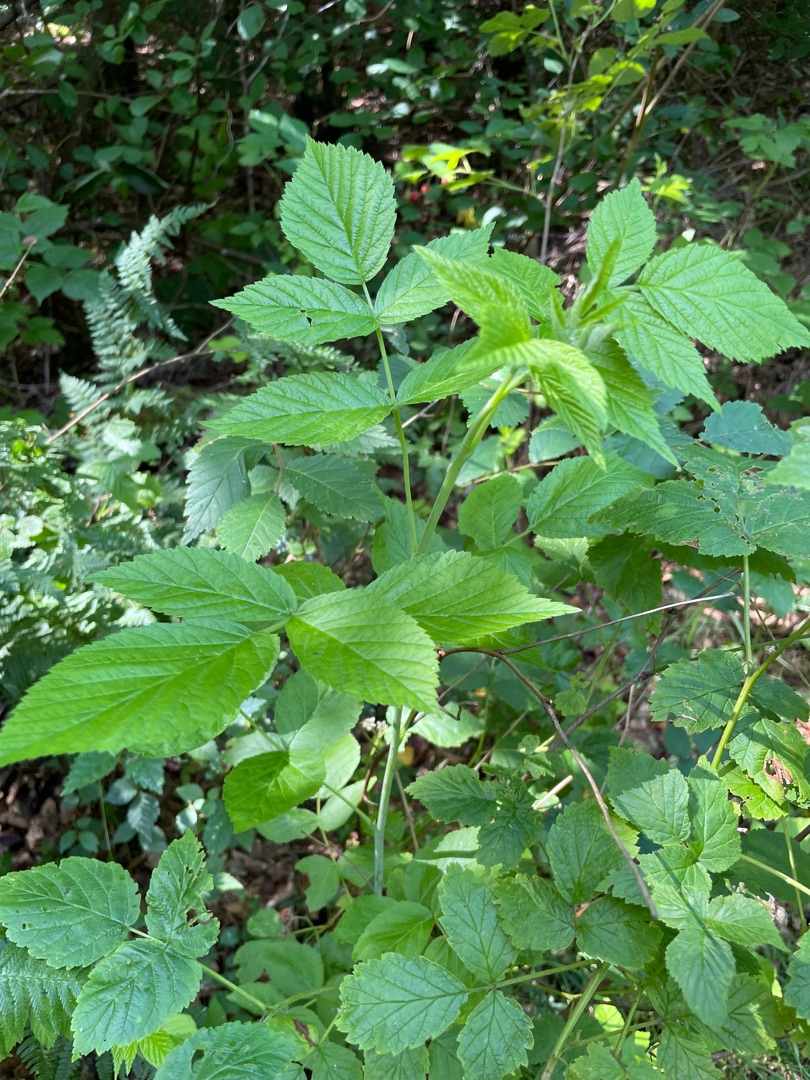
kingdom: Plantae
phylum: Tracheophyta
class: Magnoliopsida
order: Rosales
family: Rosaceae
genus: Rubus
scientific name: Rubus idaeus
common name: Hindbær
